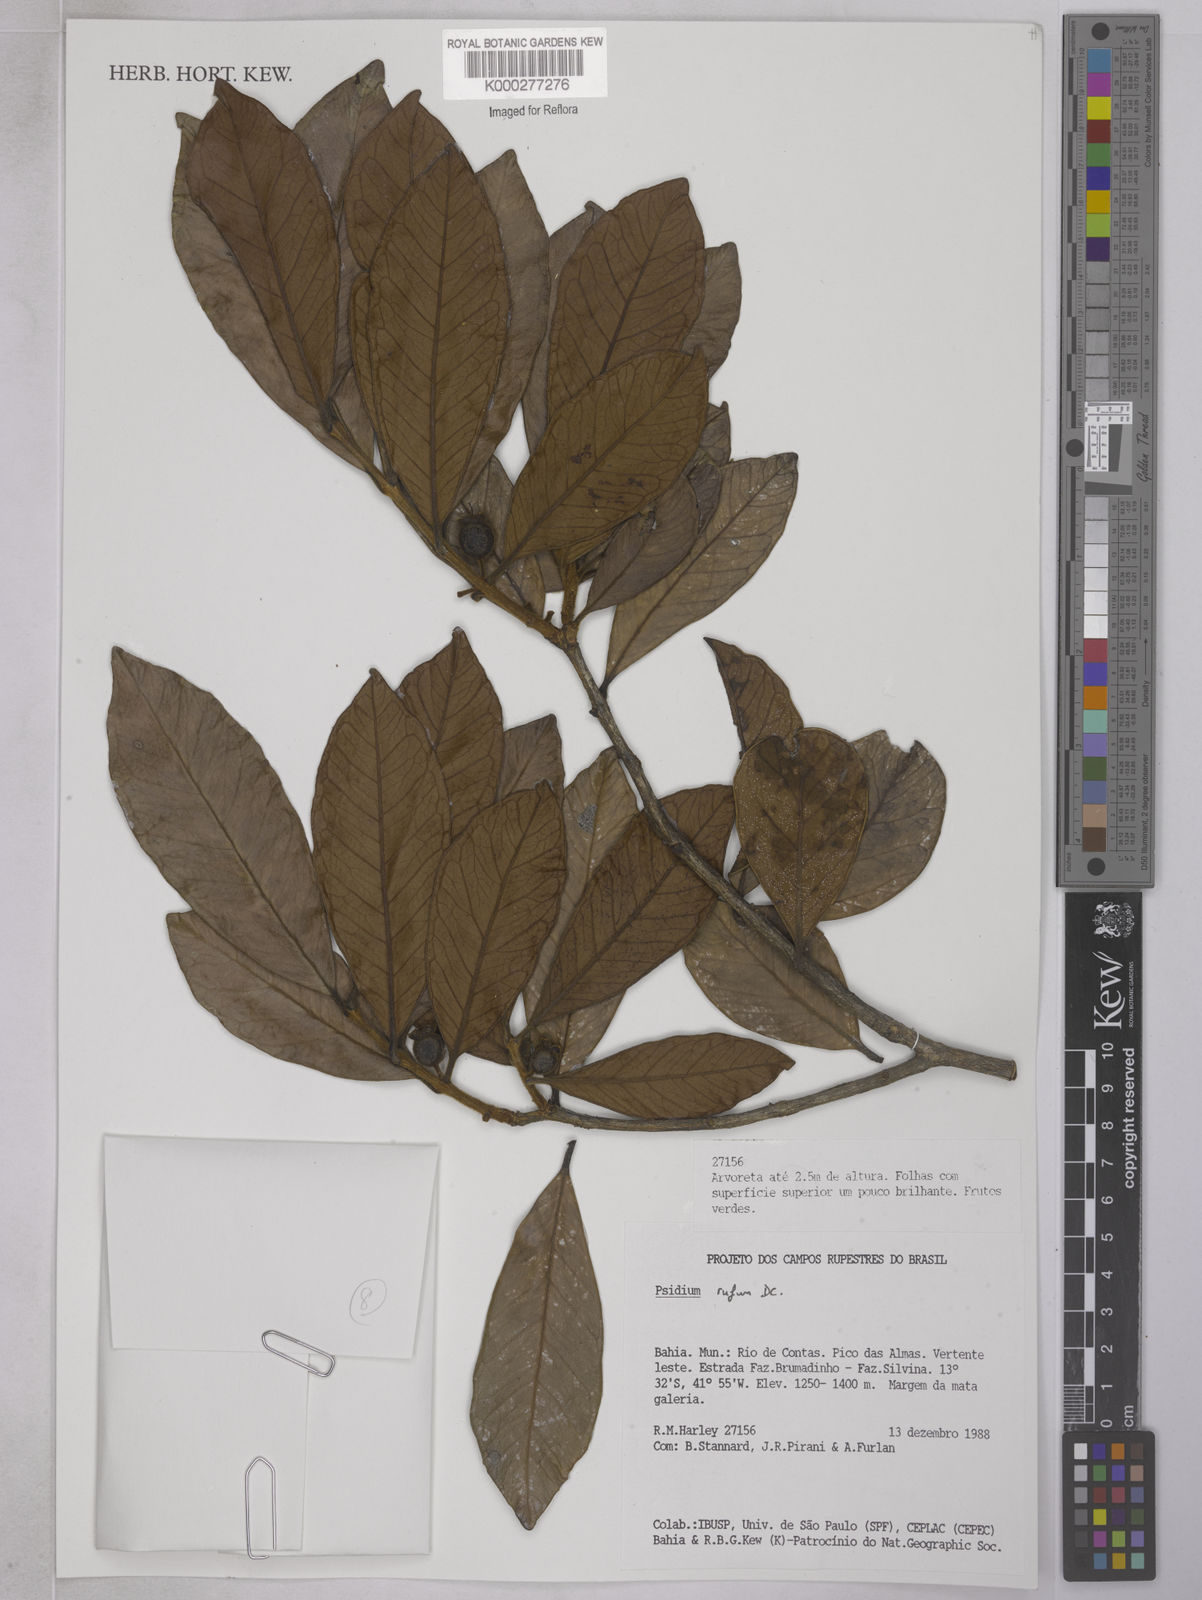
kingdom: Plantae
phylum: Tracheophyta
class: Magnoliopsida
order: Myrtales
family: Myrtaceae
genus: Psidium
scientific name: Psidium rufum
